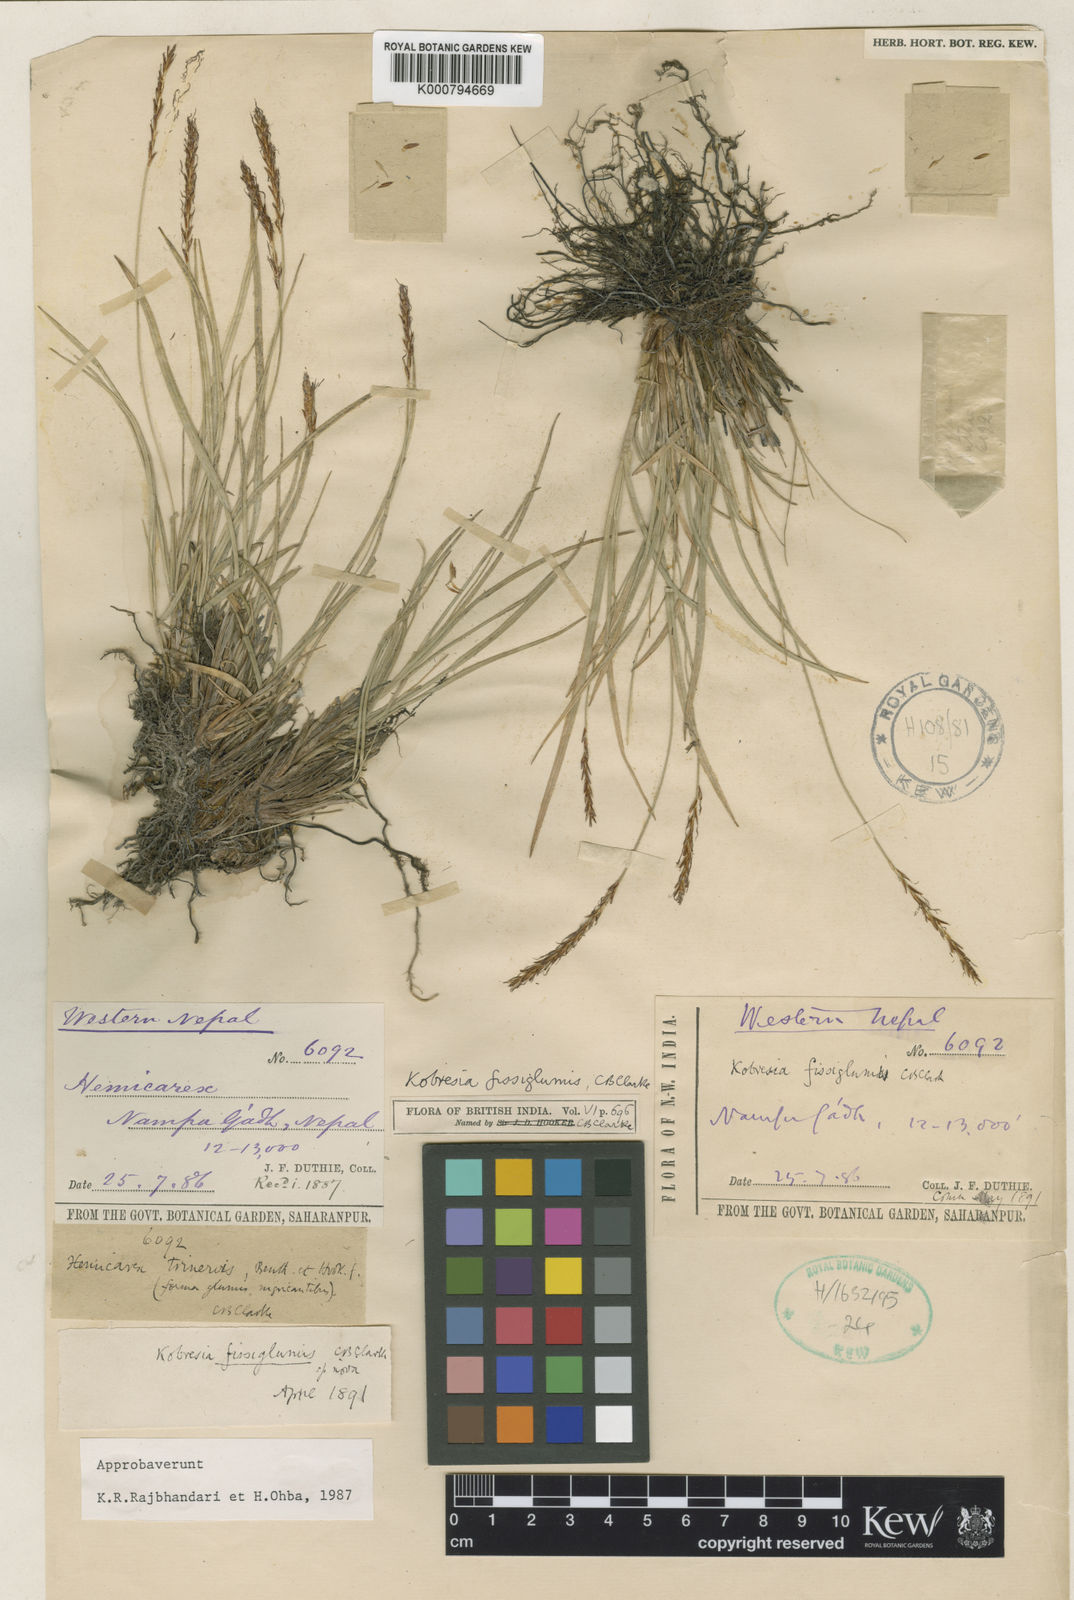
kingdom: Plantae
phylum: Tracheophyta
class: Liliopsida
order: Poales
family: Cyperaceae
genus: Carex
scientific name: Carex uncinioides
